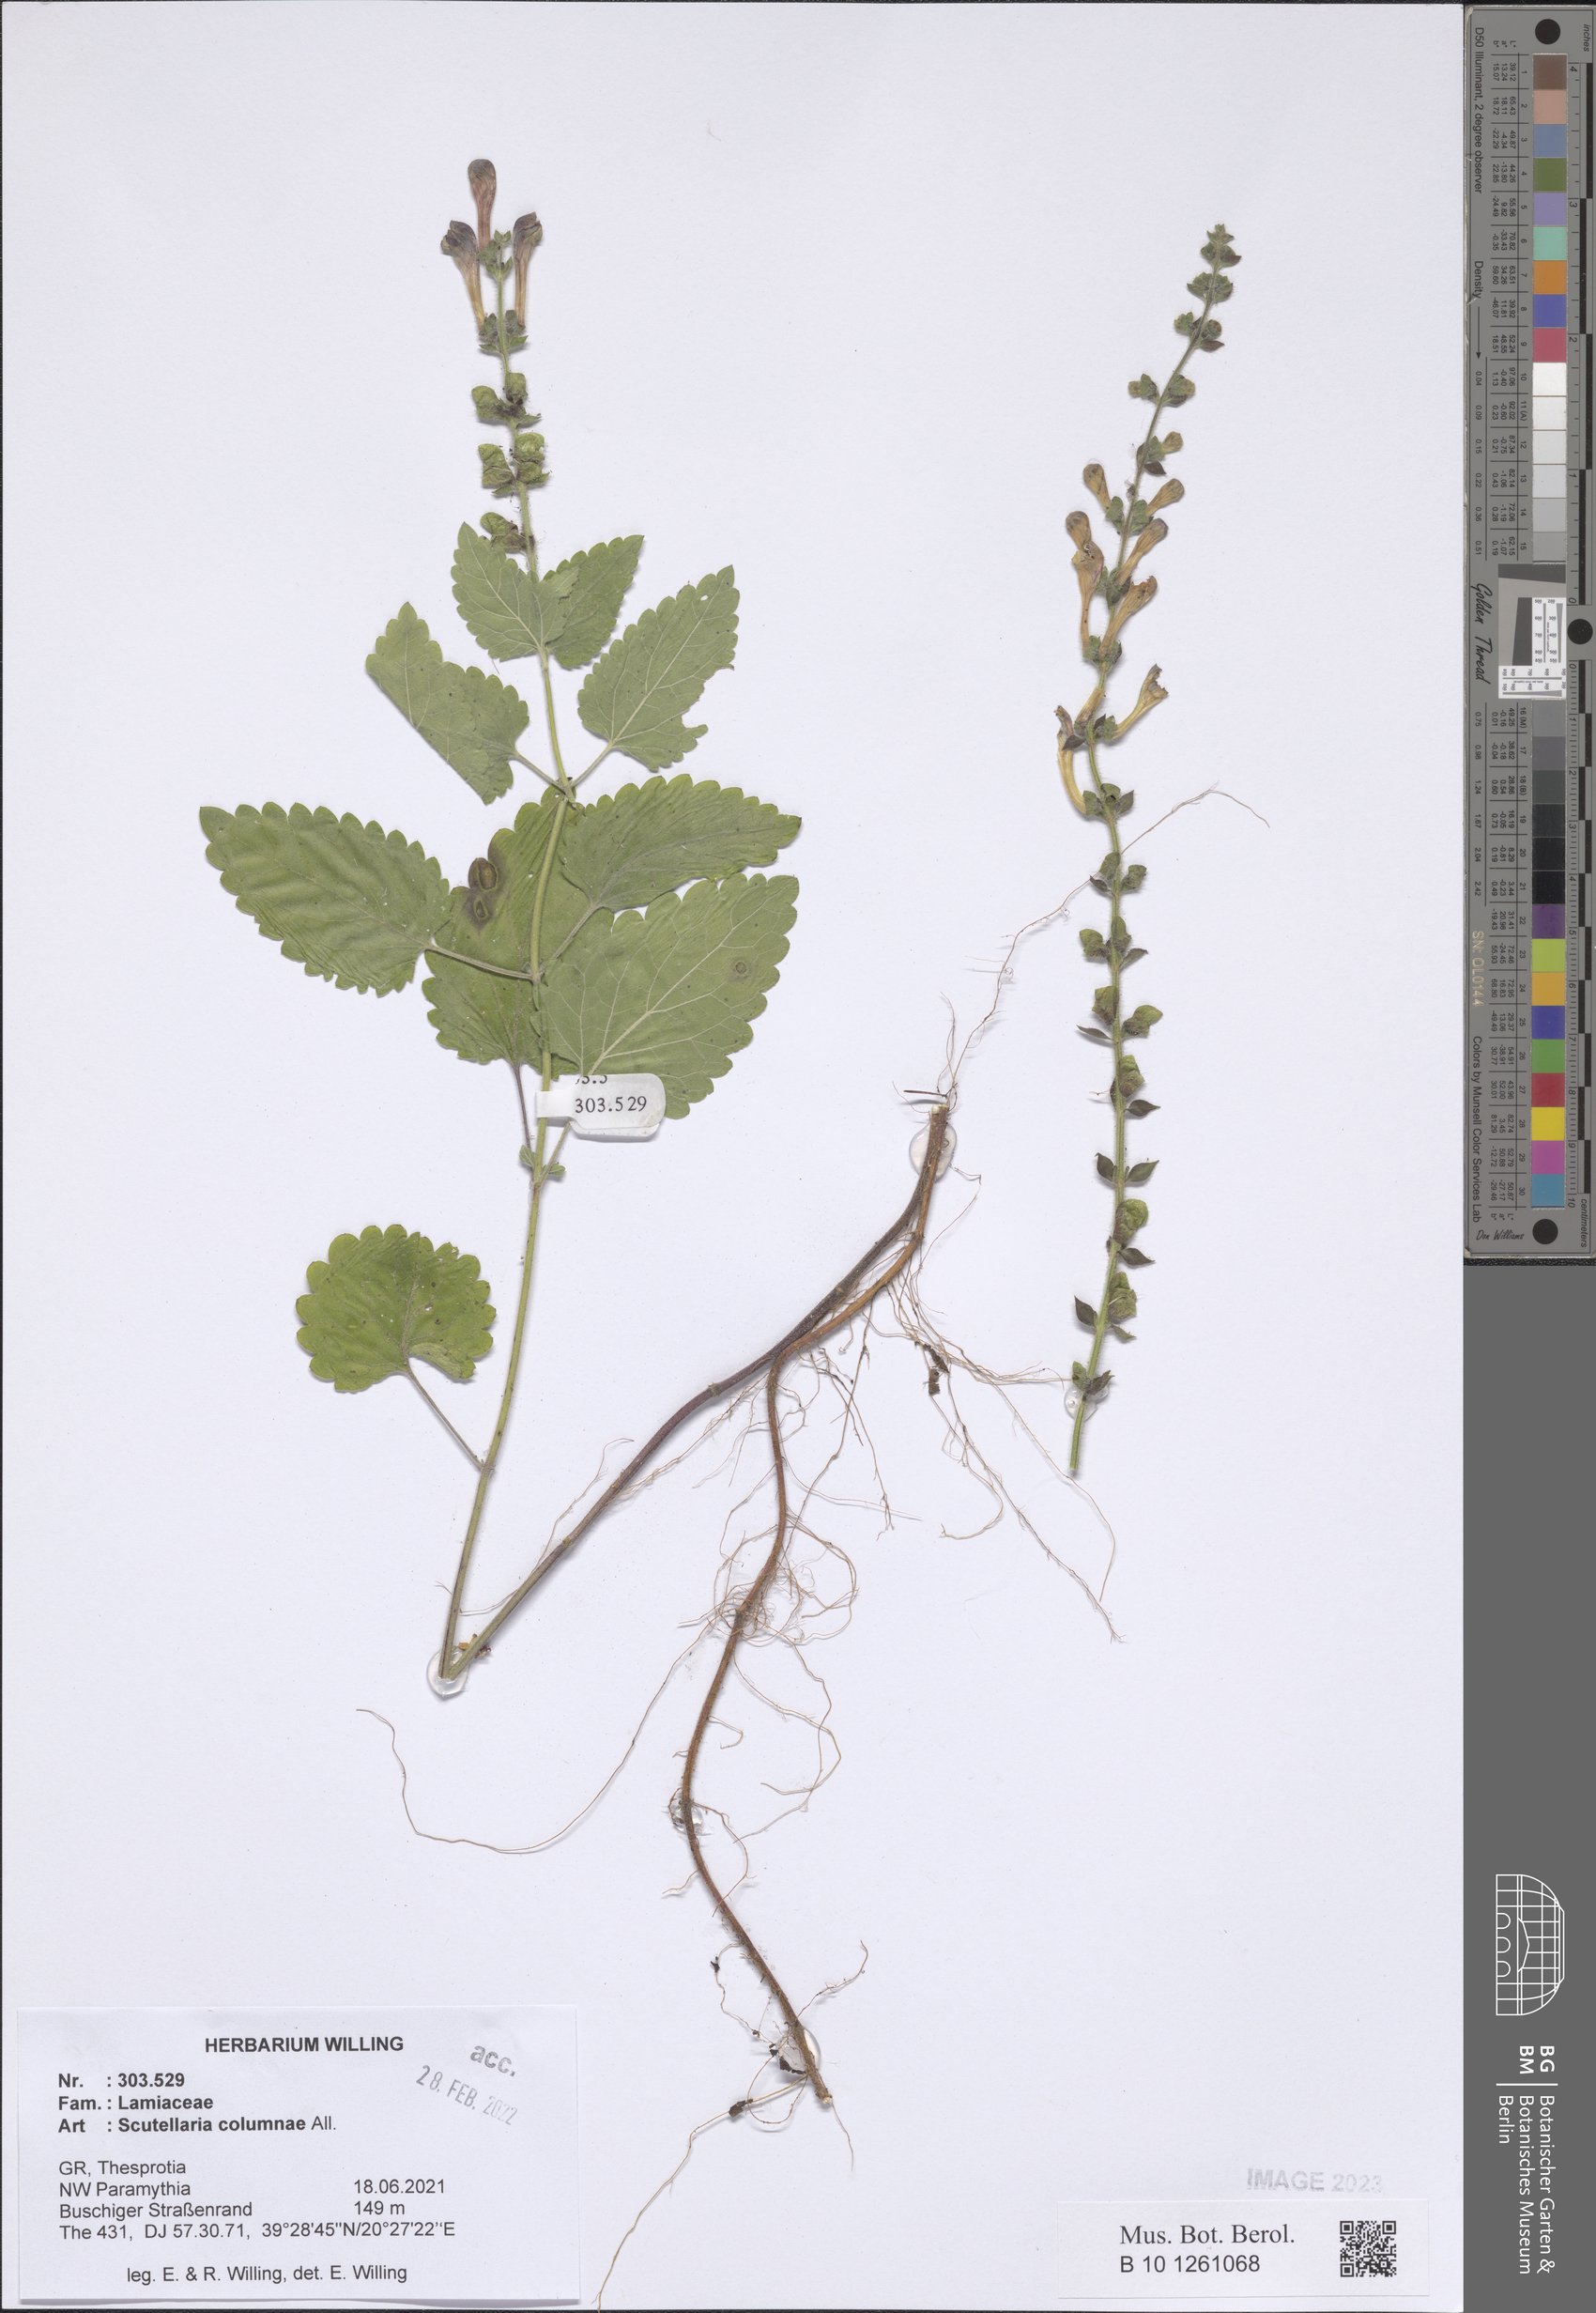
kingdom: Plantae
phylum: Tracheophyta
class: Magnoliopsida
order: Lamiales
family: Lamiaceae
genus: Scutellaria
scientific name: Scutellaria columnae
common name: Large skullcap
